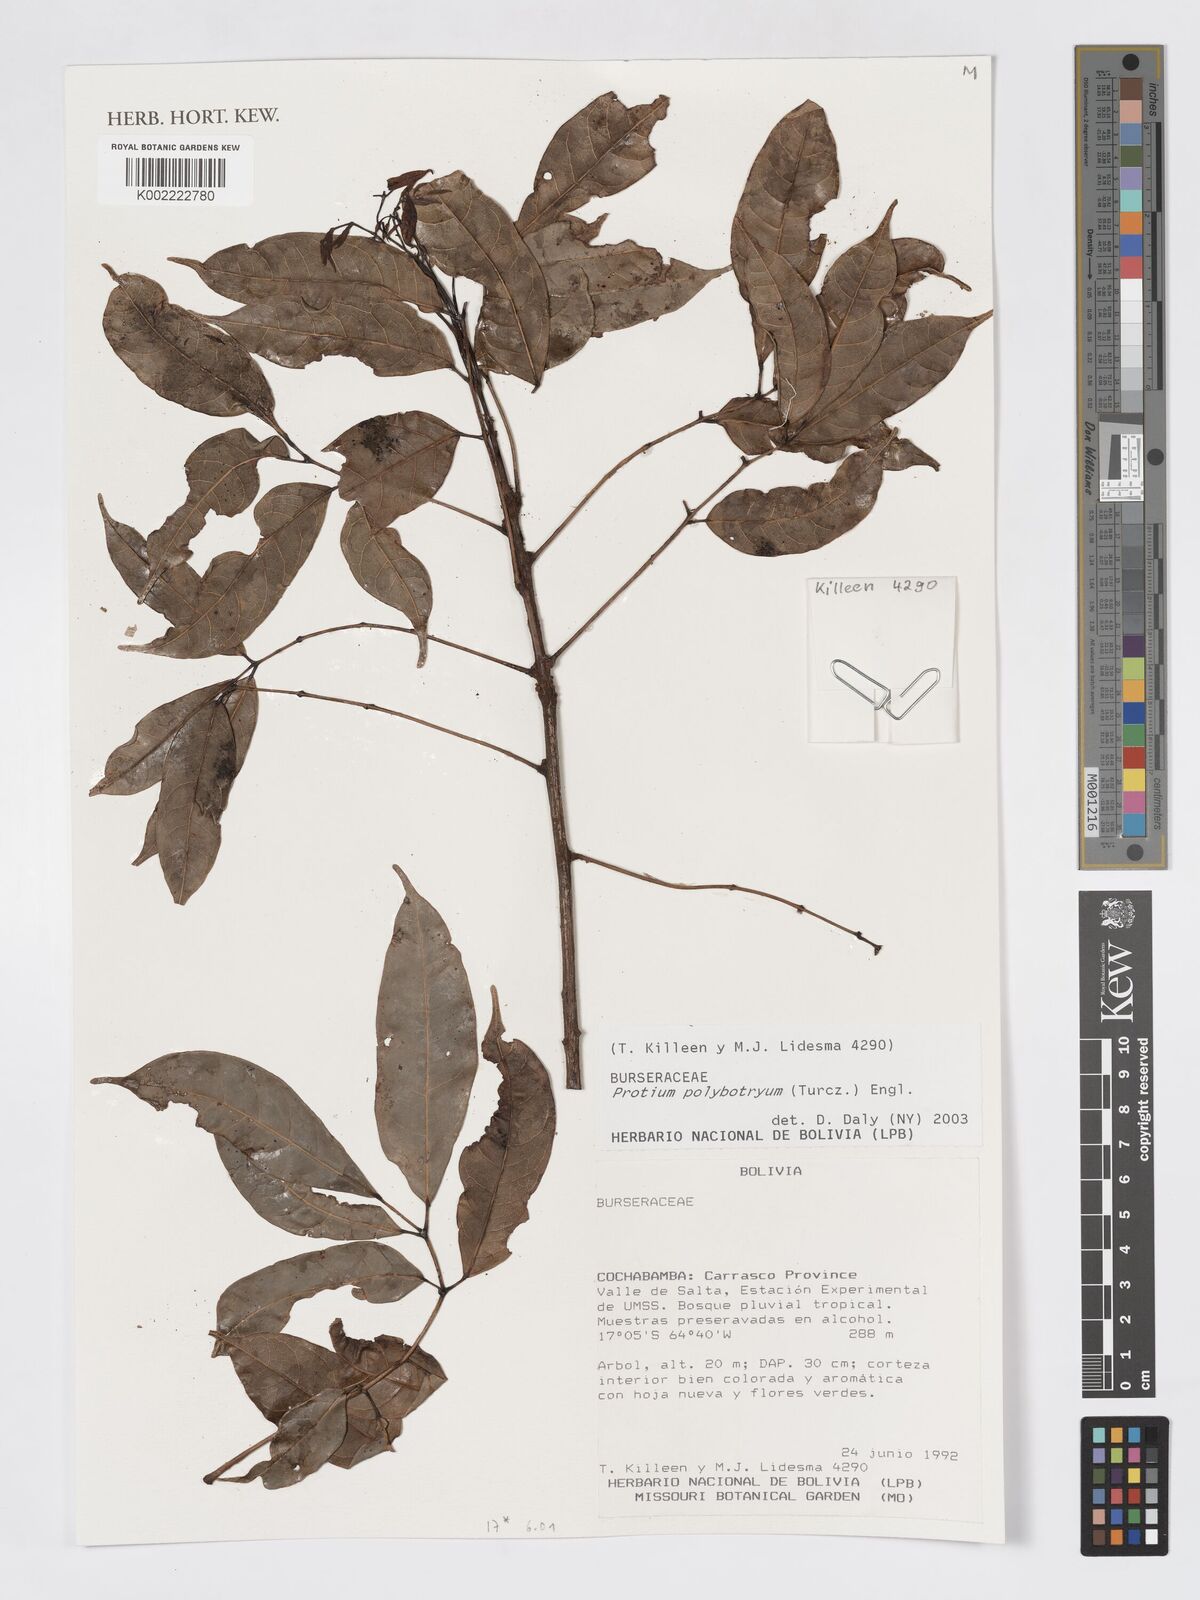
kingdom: Plantae
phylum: Tracheophyta
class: Magnoliopsida
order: Sapindales
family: Burseraceae
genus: Protium
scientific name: Protium polybotryum
